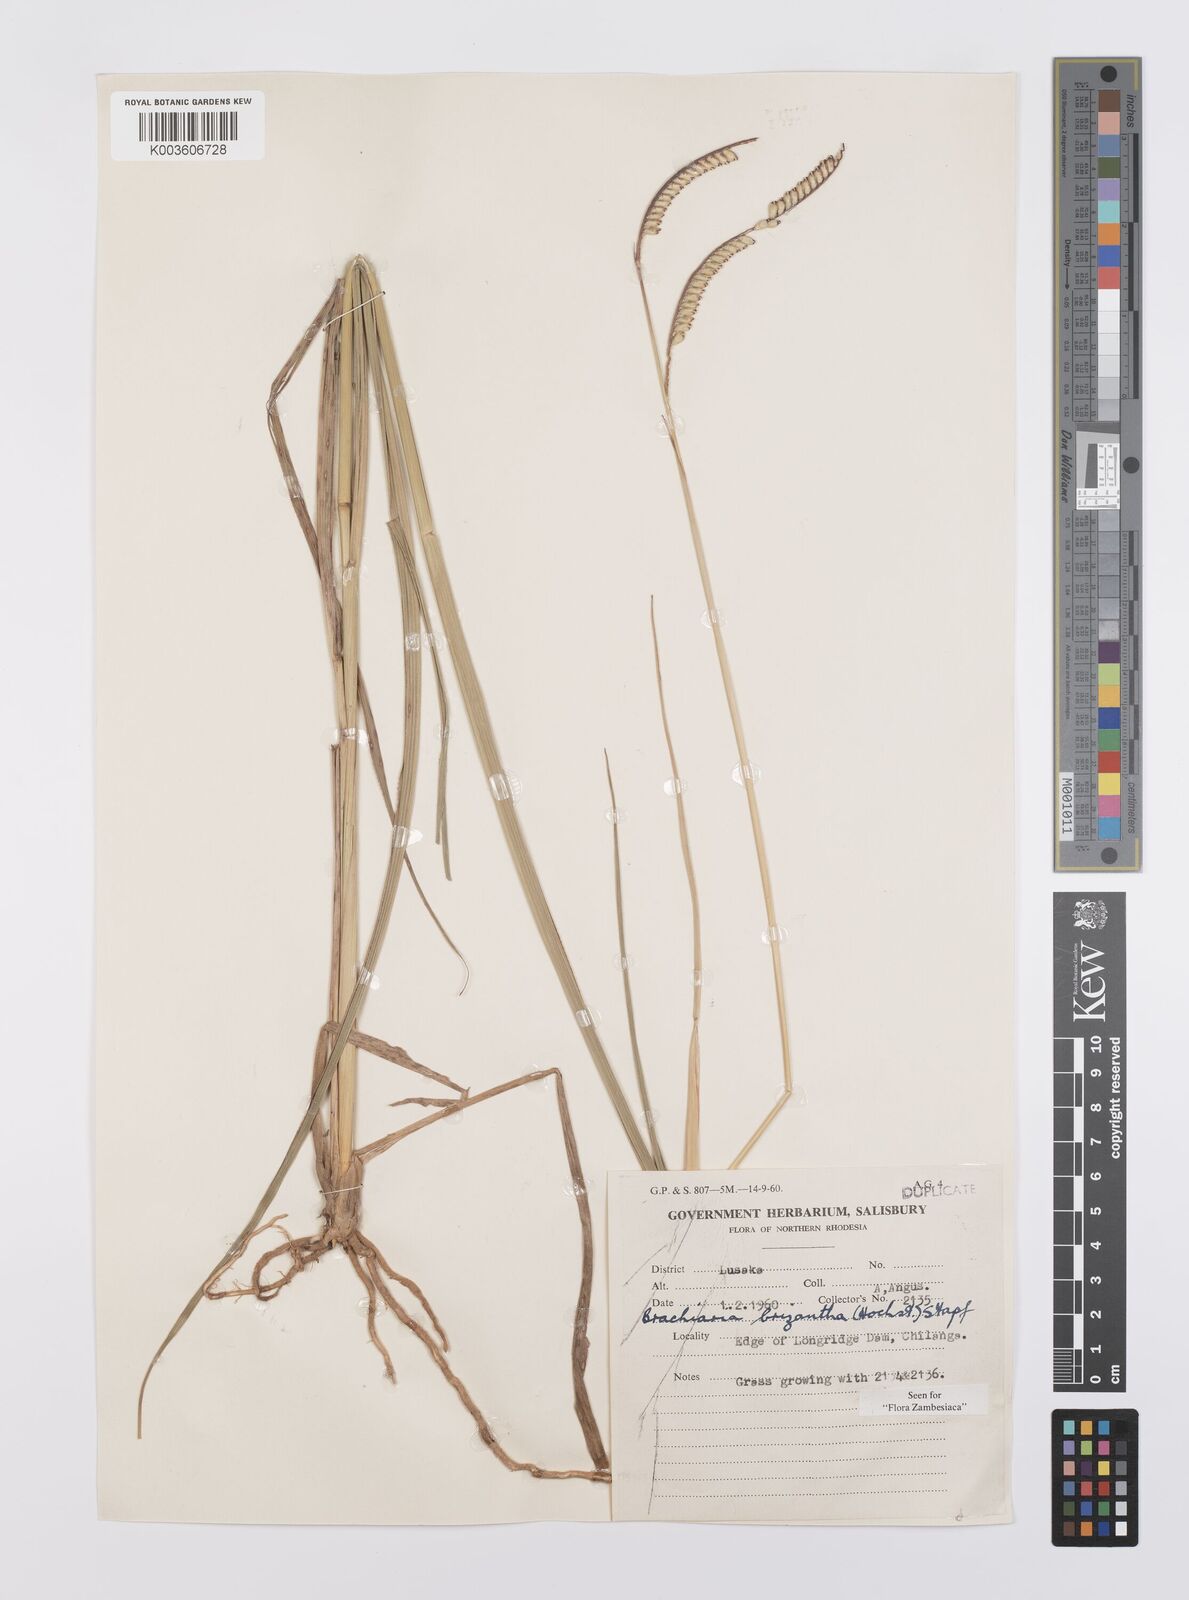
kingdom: Plantae
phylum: Tracheophyta
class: Liliopsida
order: Poales
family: Poaceae
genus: Urochloa
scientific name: Urochloa brizantha
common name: Palisade signalgrass
